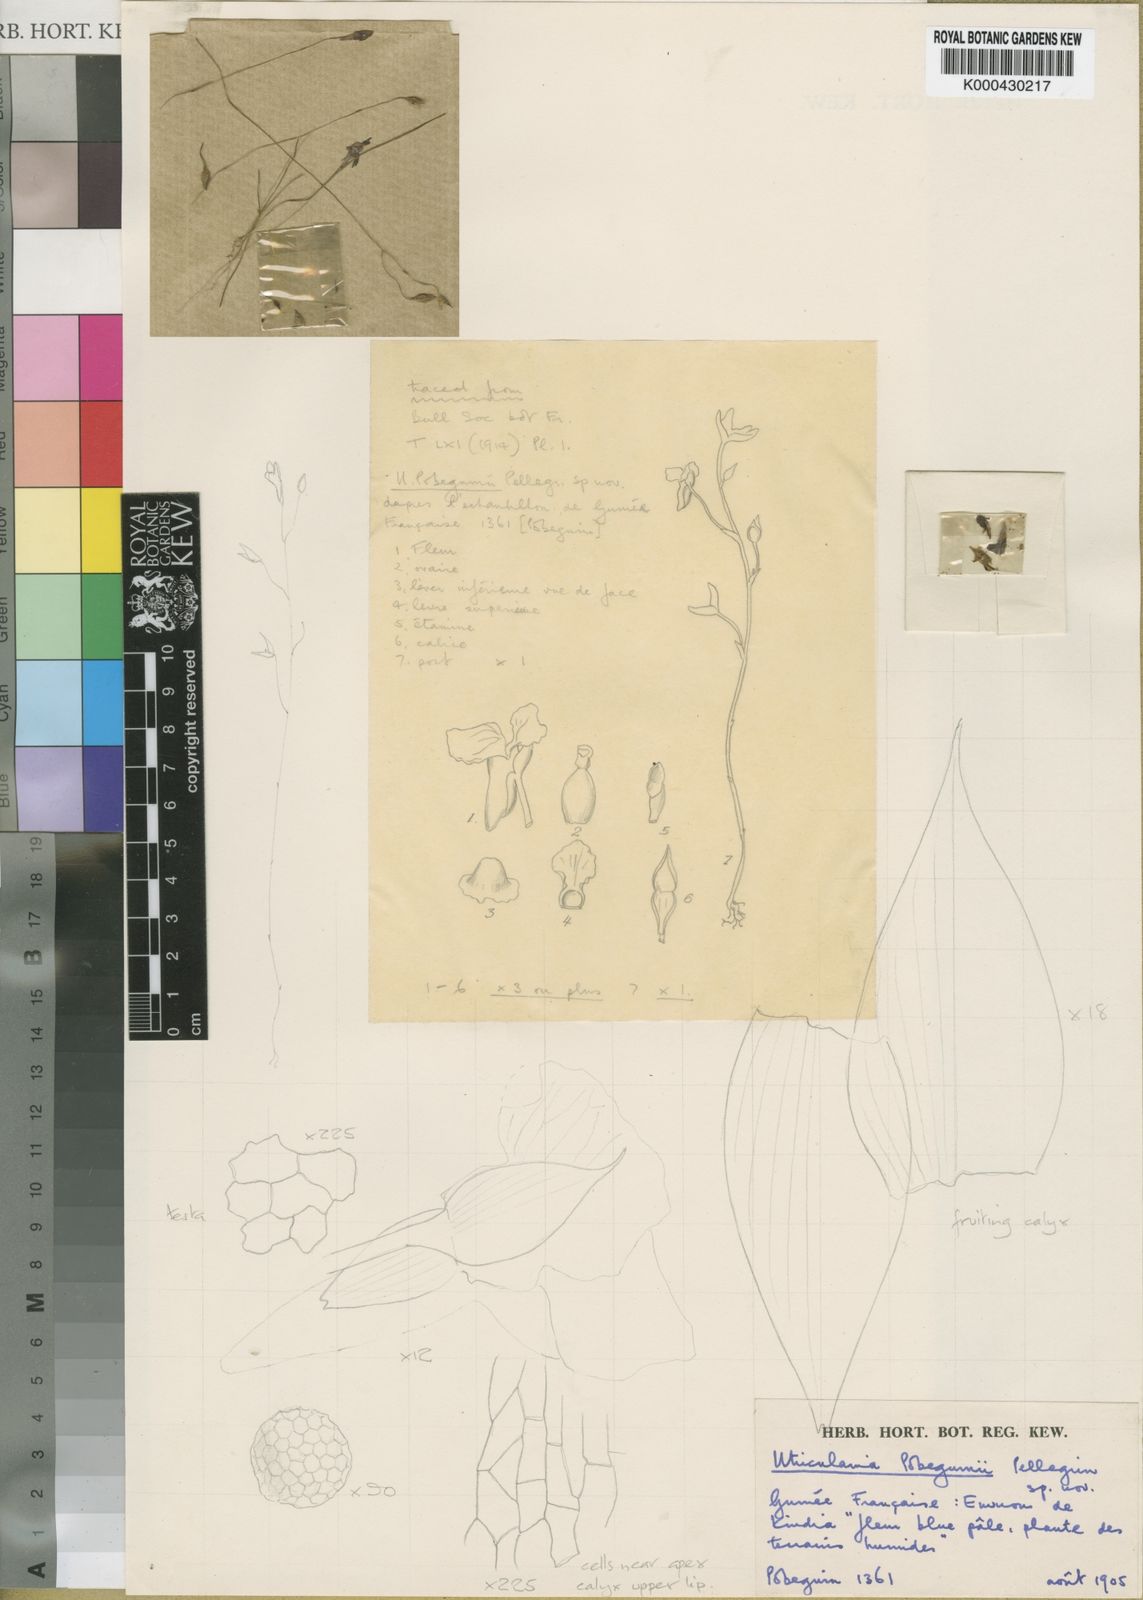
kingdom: Plantae
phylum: Tracheophyta
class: Magnoliopsida
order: Lamiales
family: Lentibulariaceae
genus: Utricularia
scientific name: Utricularia pobeguinii
